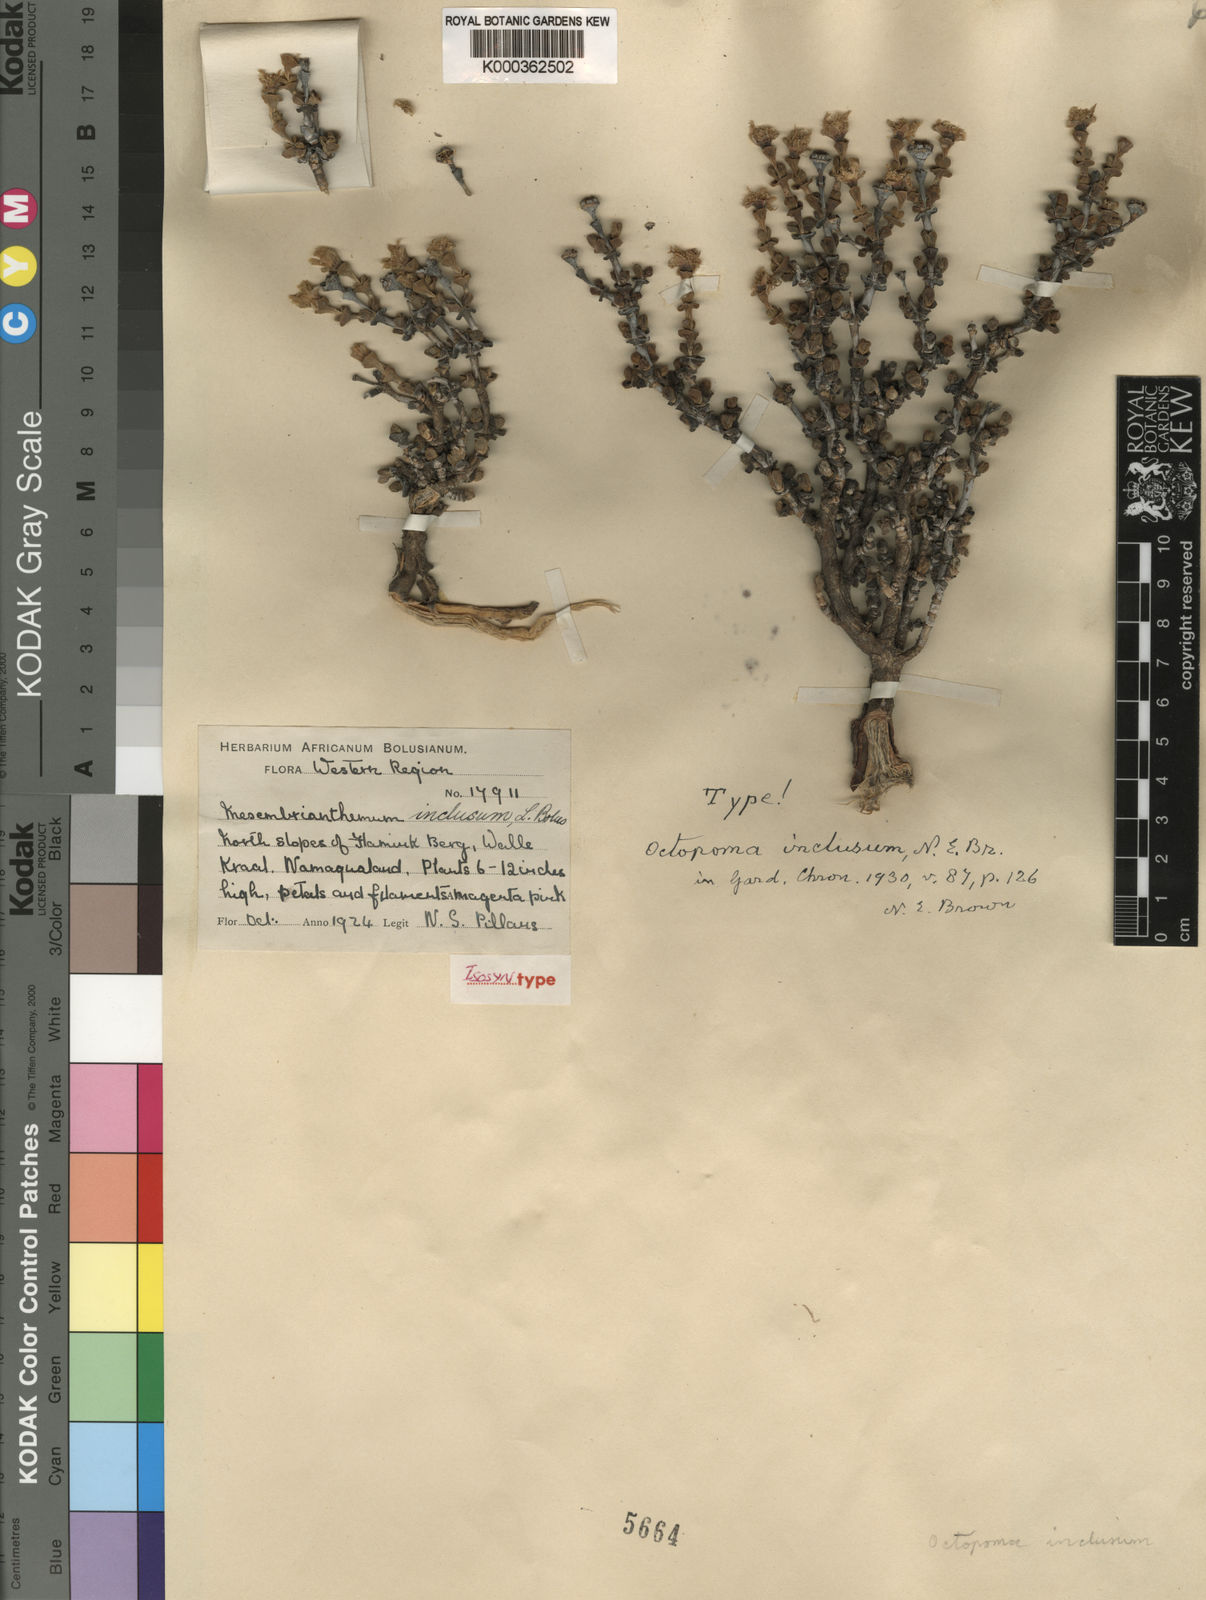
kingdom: Plantae
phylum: Tracheophyta
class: Magnoliopsida
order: Caryophyllales
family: Aizoaceae
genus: Schlechteranthus
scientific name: Schlechteranthus inclusus
